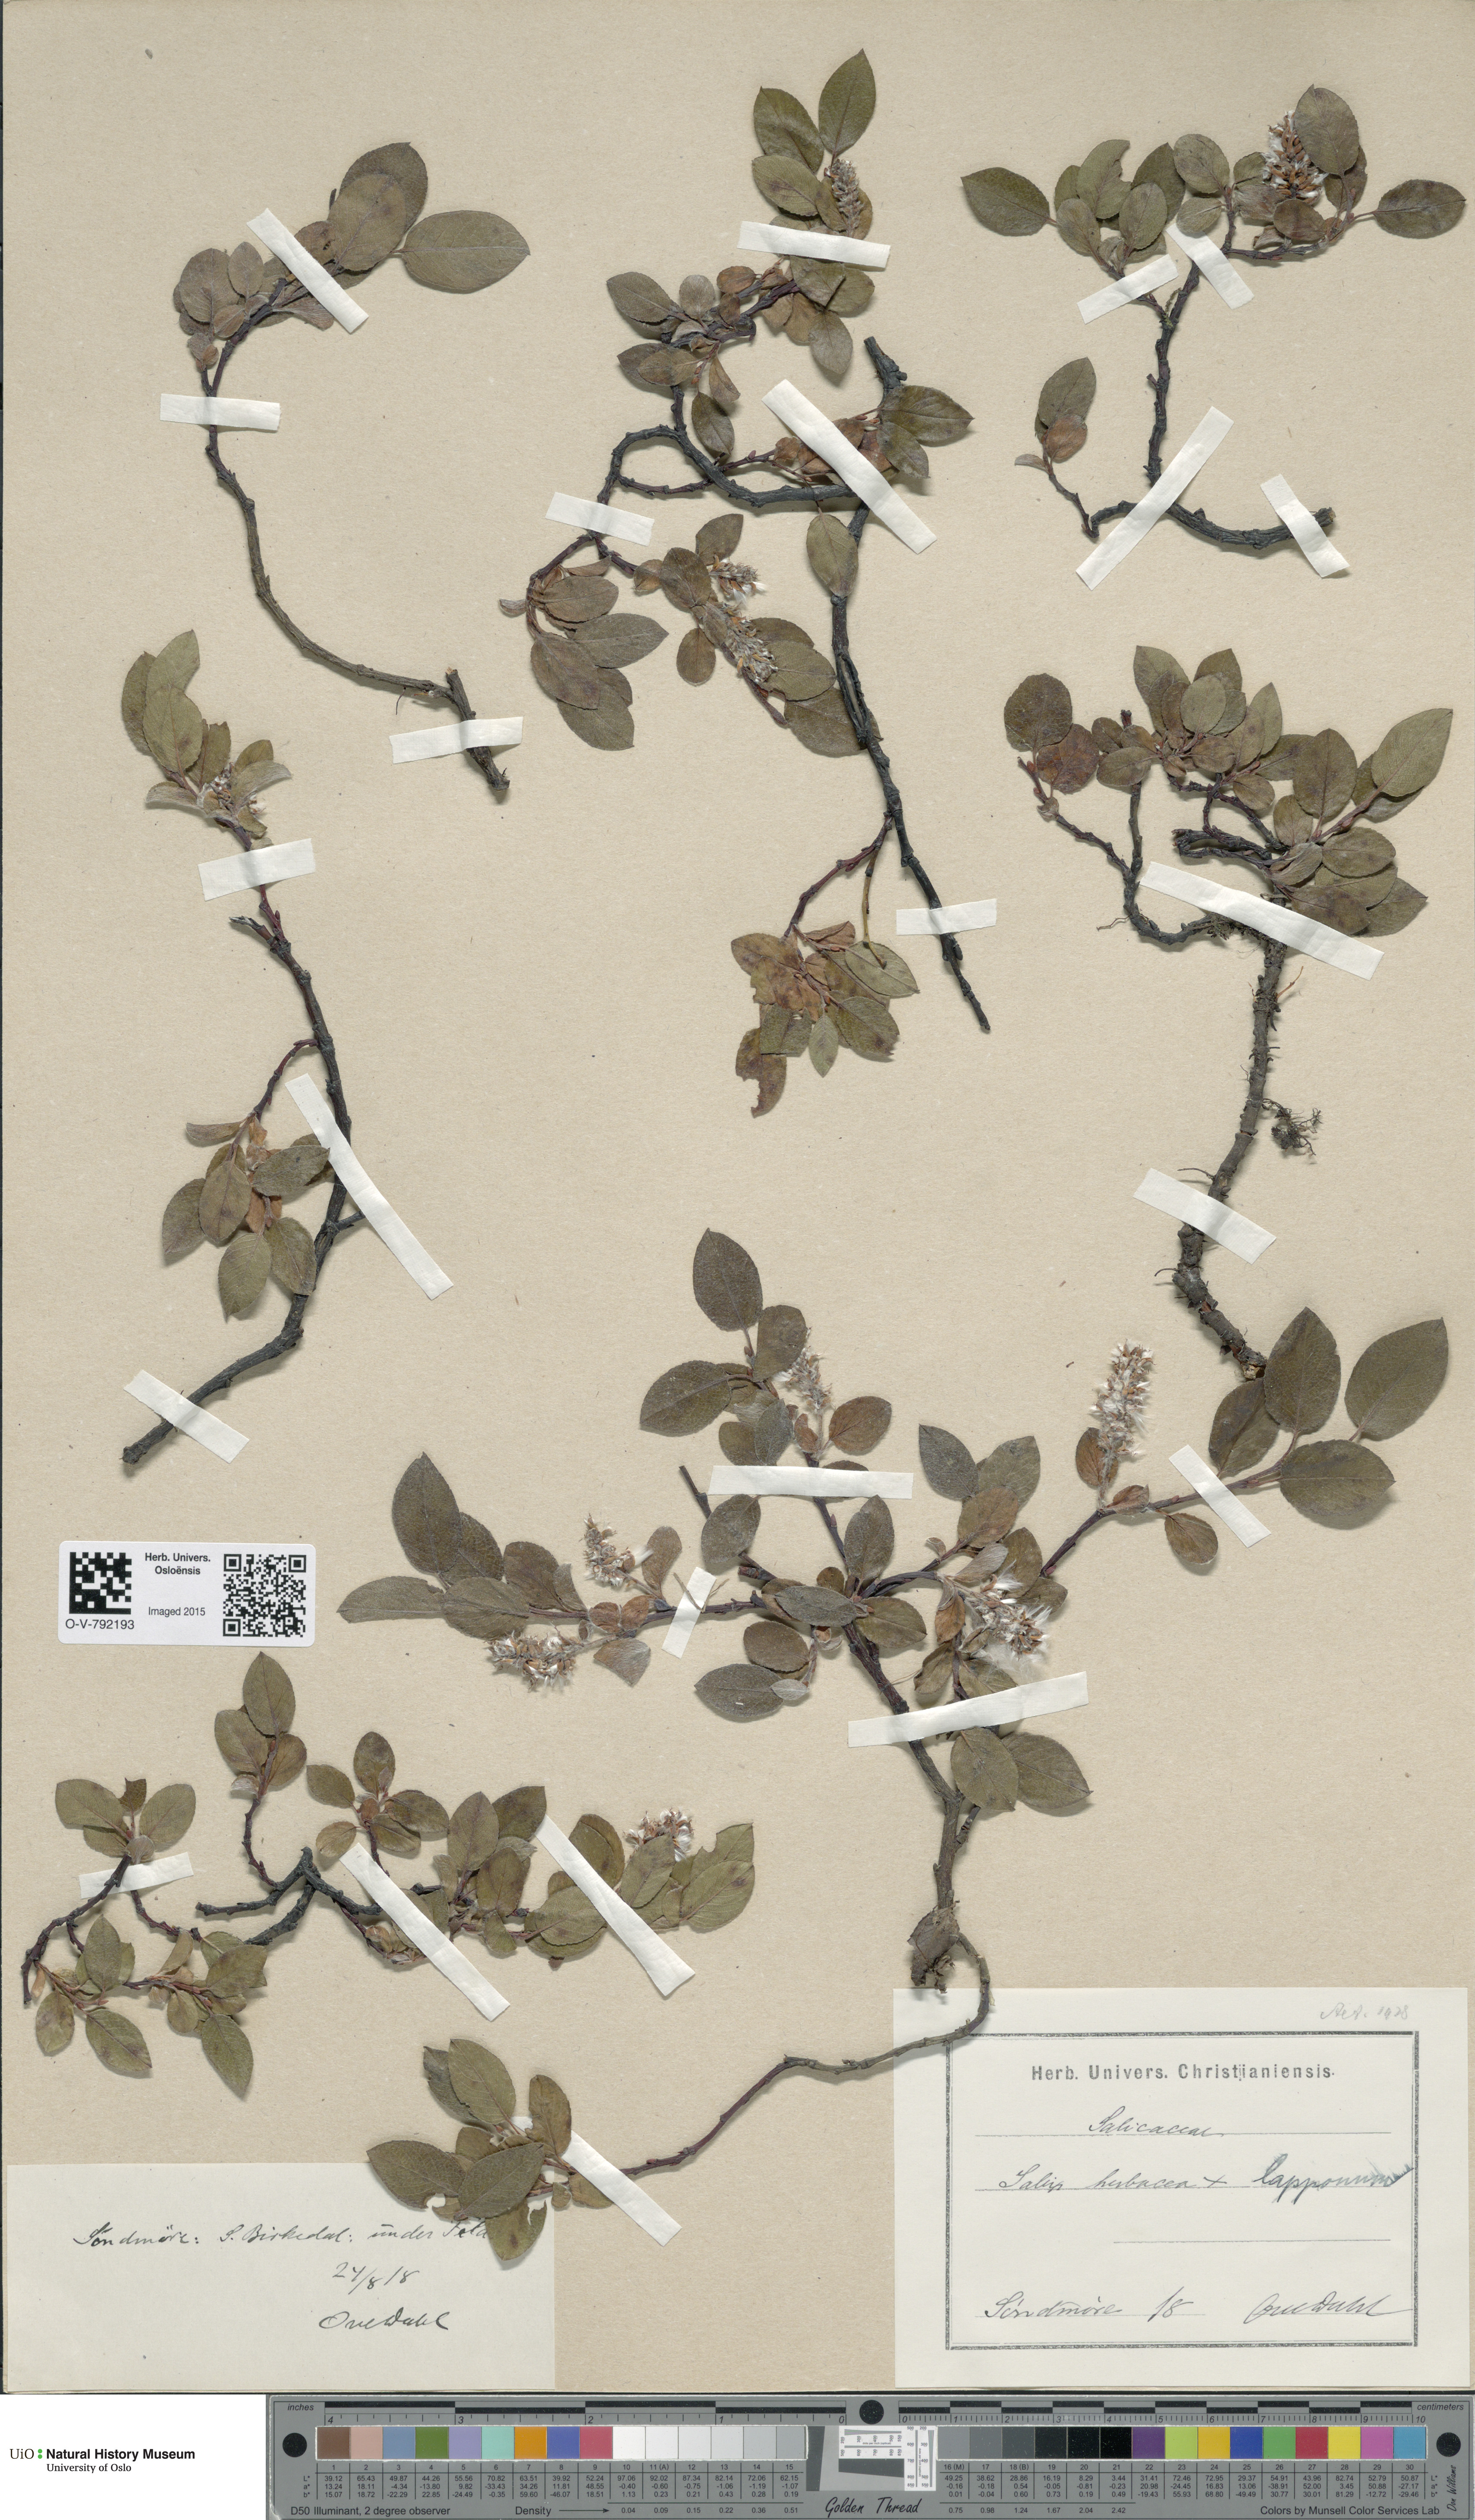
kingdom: Plantae
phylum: Tracheophyta
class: Magnoliopsida
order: Malpighiales
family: Salicaceae
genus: Salix
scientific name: Salix
